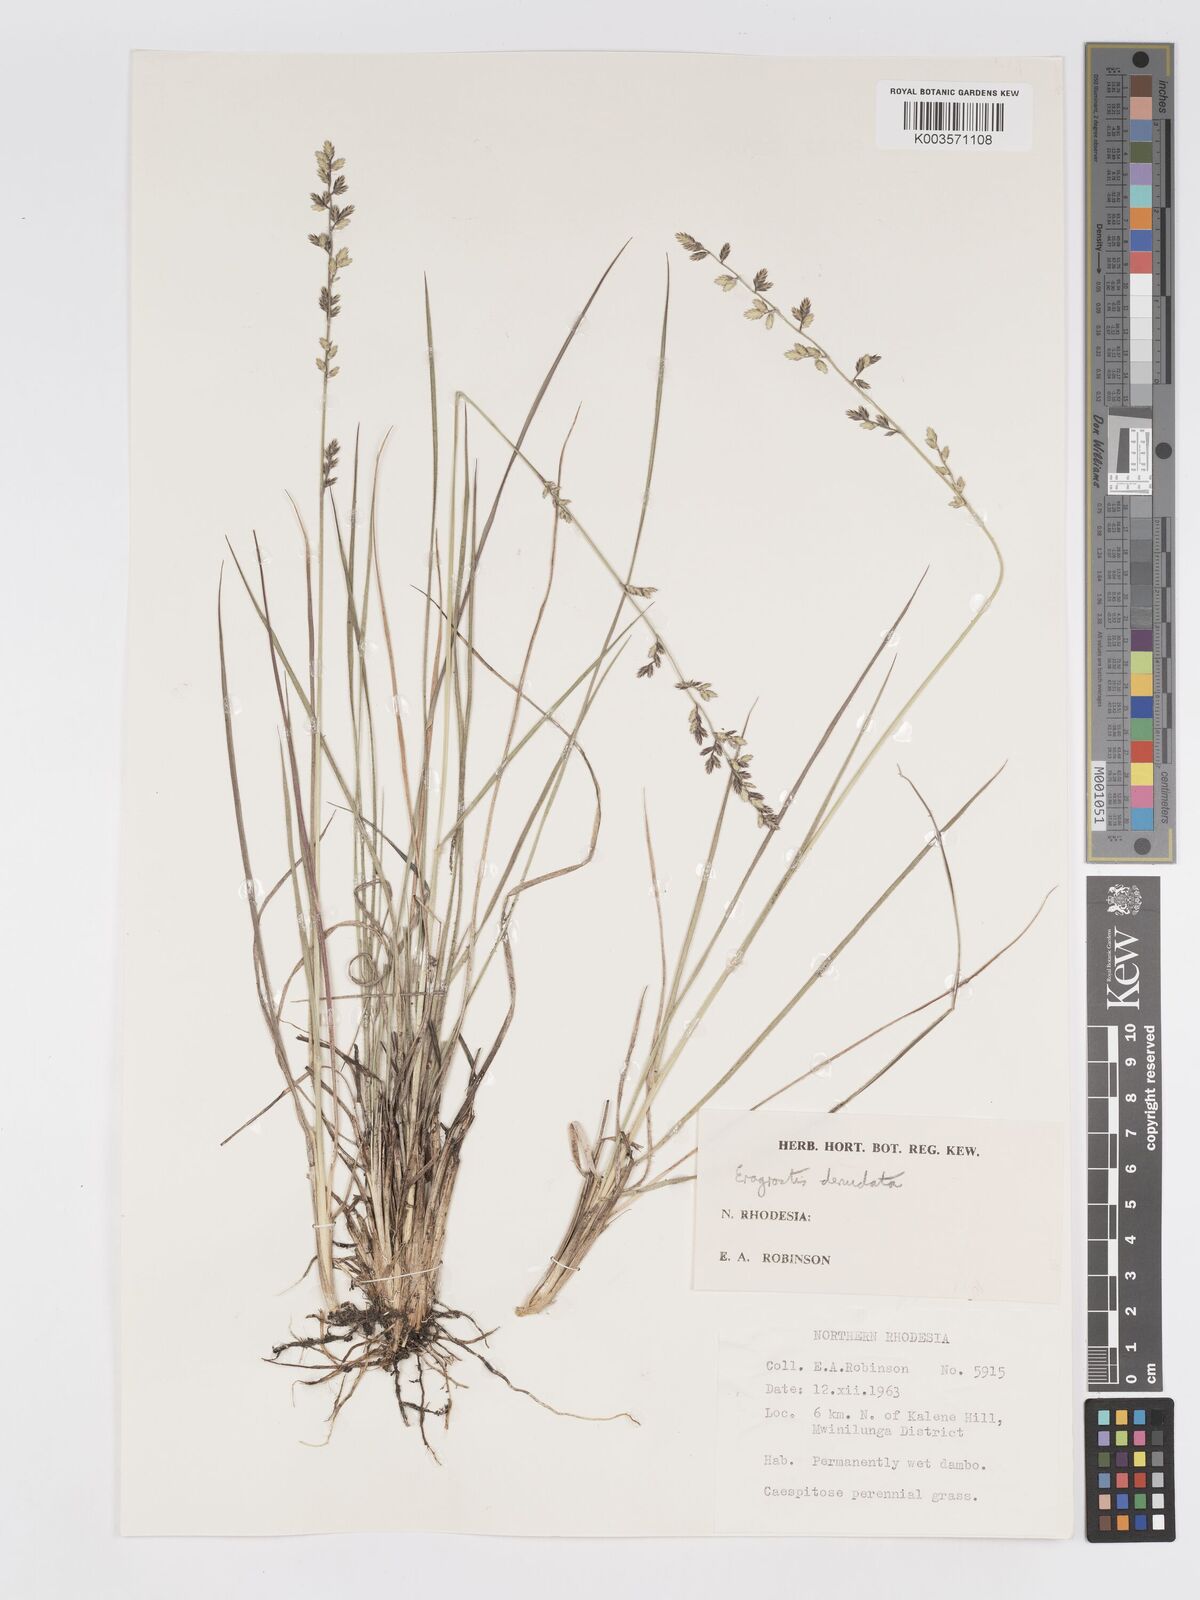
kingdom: Plantae
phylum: Tracheophyta
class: Liliopsida
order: Poales
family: Poaceae
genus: Eragrostis
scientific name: Eragrostis nindensis
